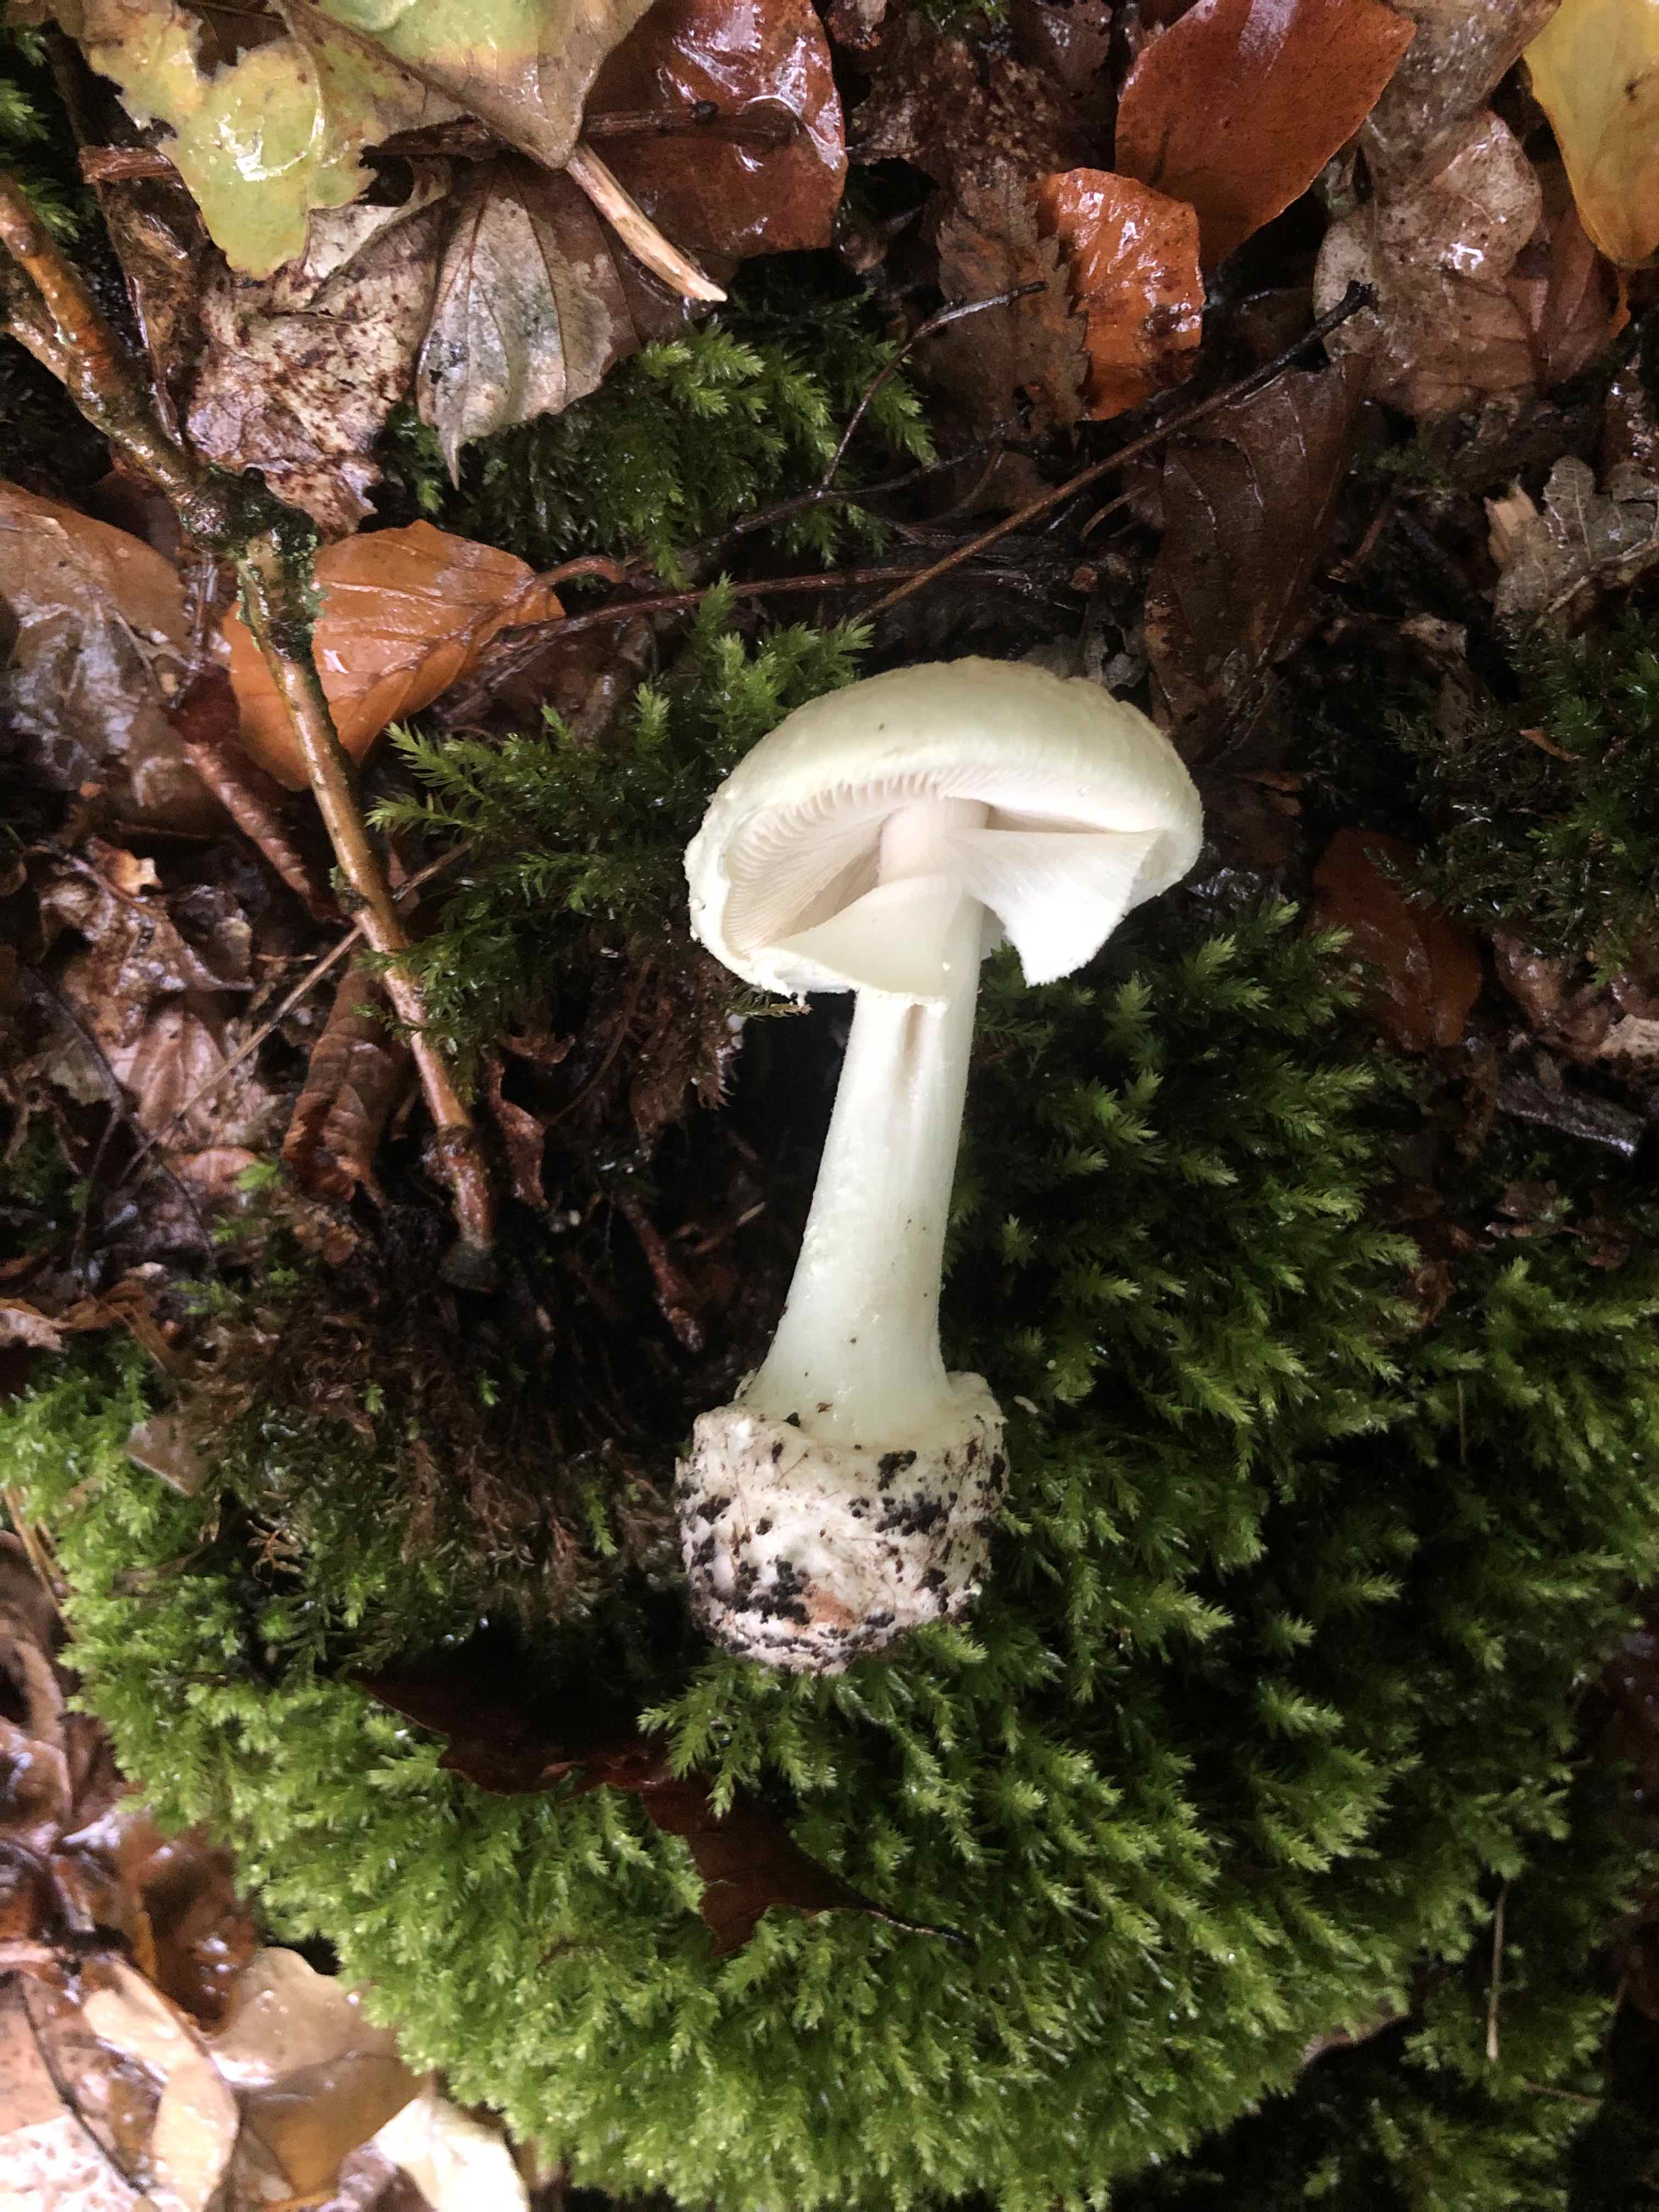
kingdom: Fungi
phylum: Basidiomycota
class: Agaricomycetes
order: Agaricales
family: Amanitaceae
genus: Amanita
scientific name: Amanita citrina
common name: kugleknoldet fluesvamp
